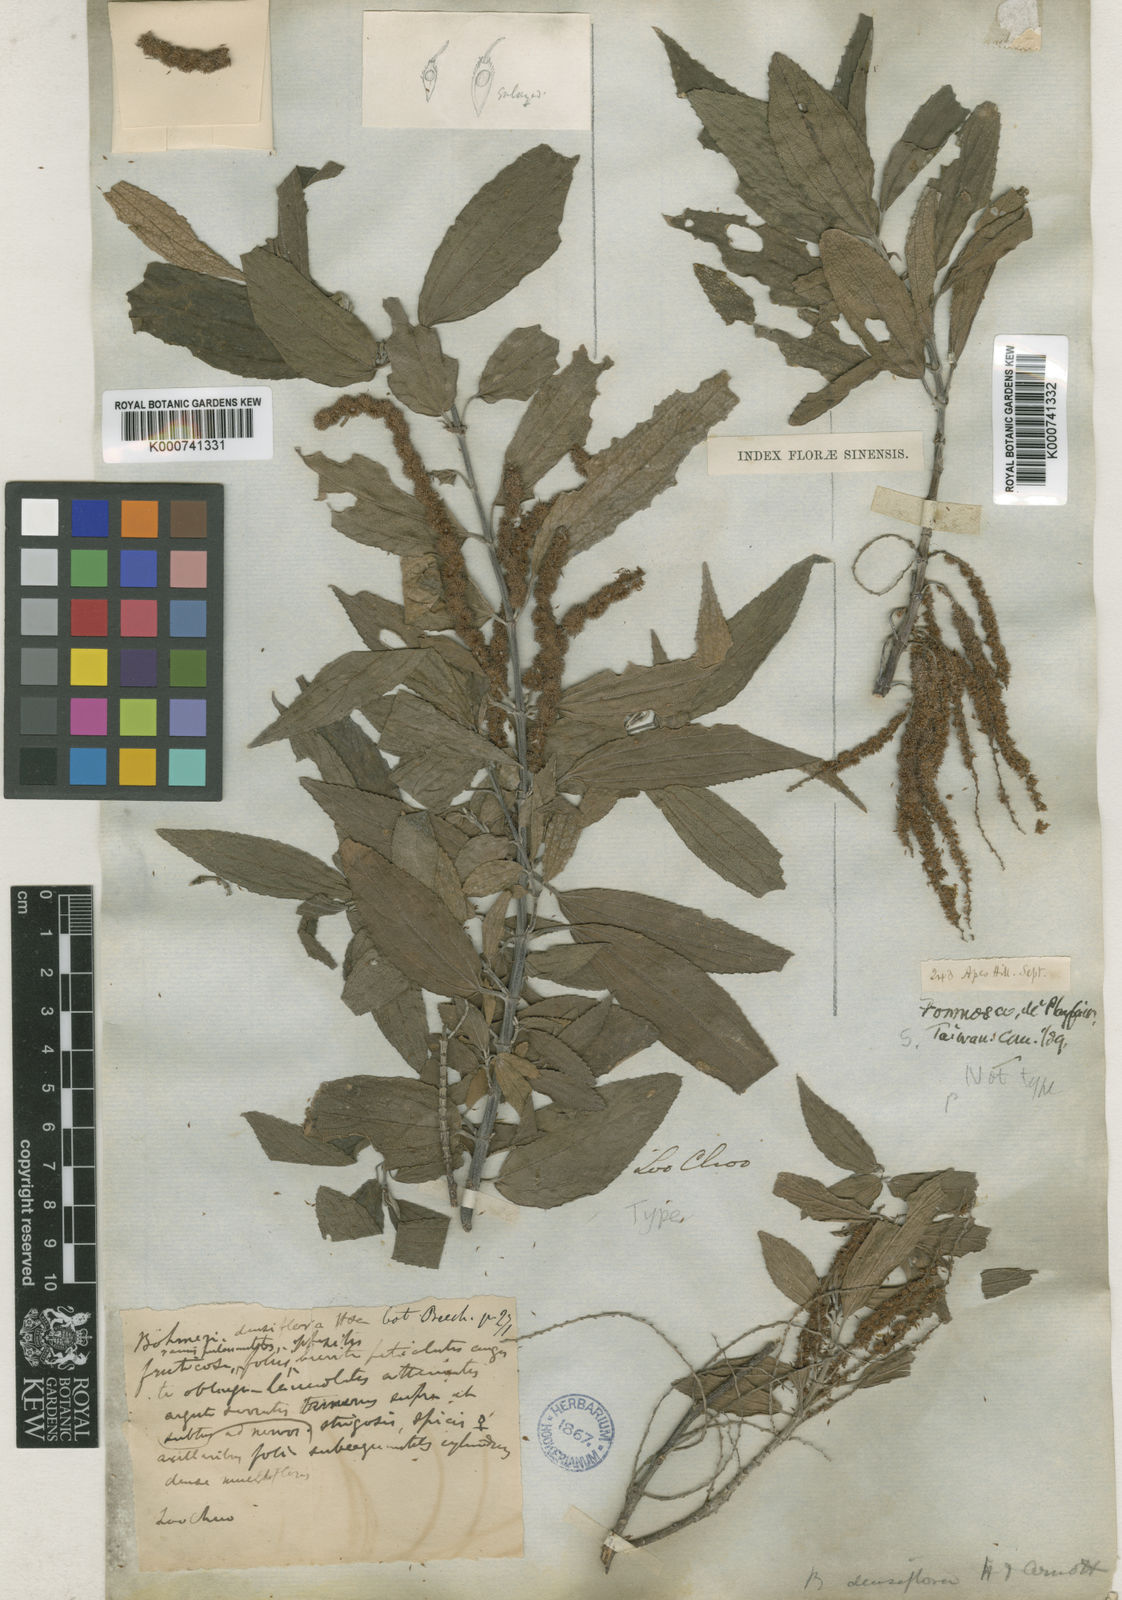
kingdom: Plantae
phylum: Tracheophyta
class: Magnoliopsida
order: Rosales
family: Urticaceae
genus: Boehmeria
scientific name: Boehmeria densiflora
